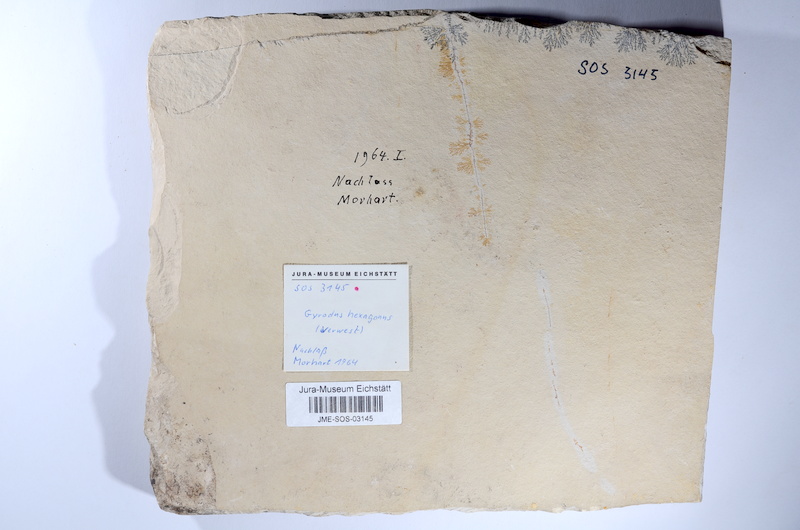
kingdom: Animalia
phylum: Chordata
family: Gyrodontidae
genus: Gyrodus
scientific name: Gyrodus hexagonus
